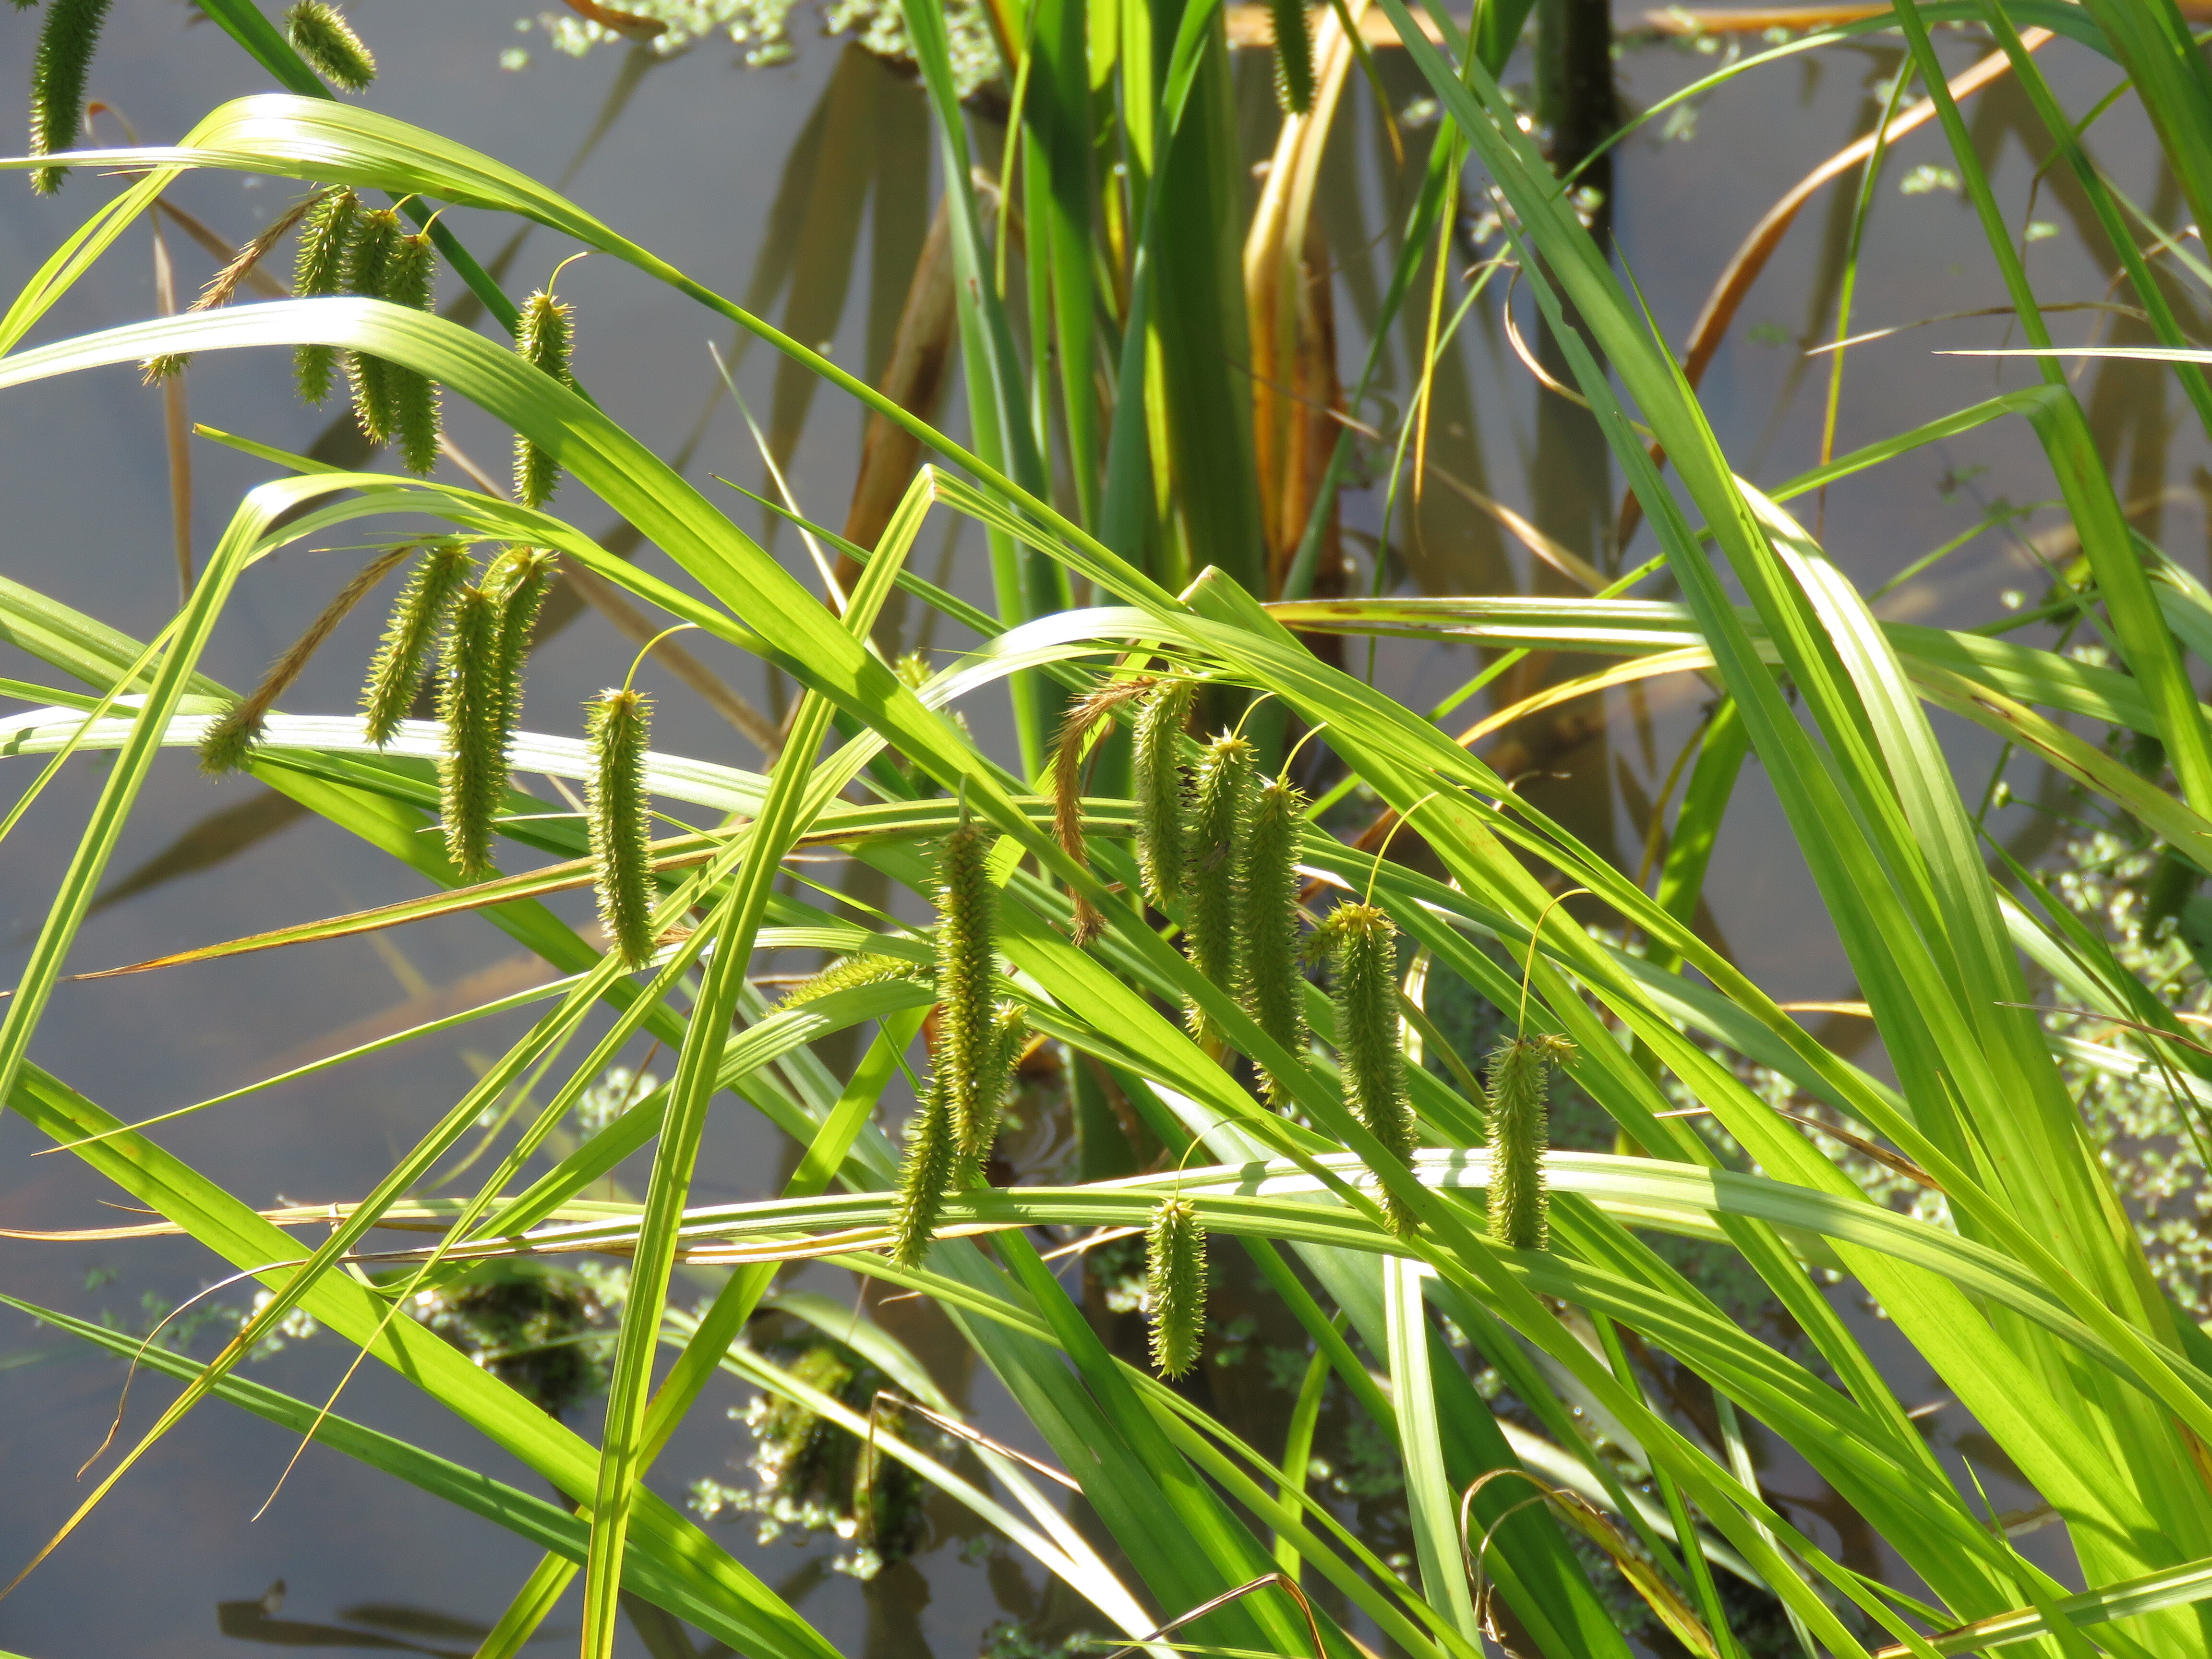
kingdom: Plantae
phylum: Tracheophyta
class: Liliopsida
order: Poales
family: Cyperaceae
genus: Carex
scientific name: Carex pseudocyperus
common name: Cyperus sedge
